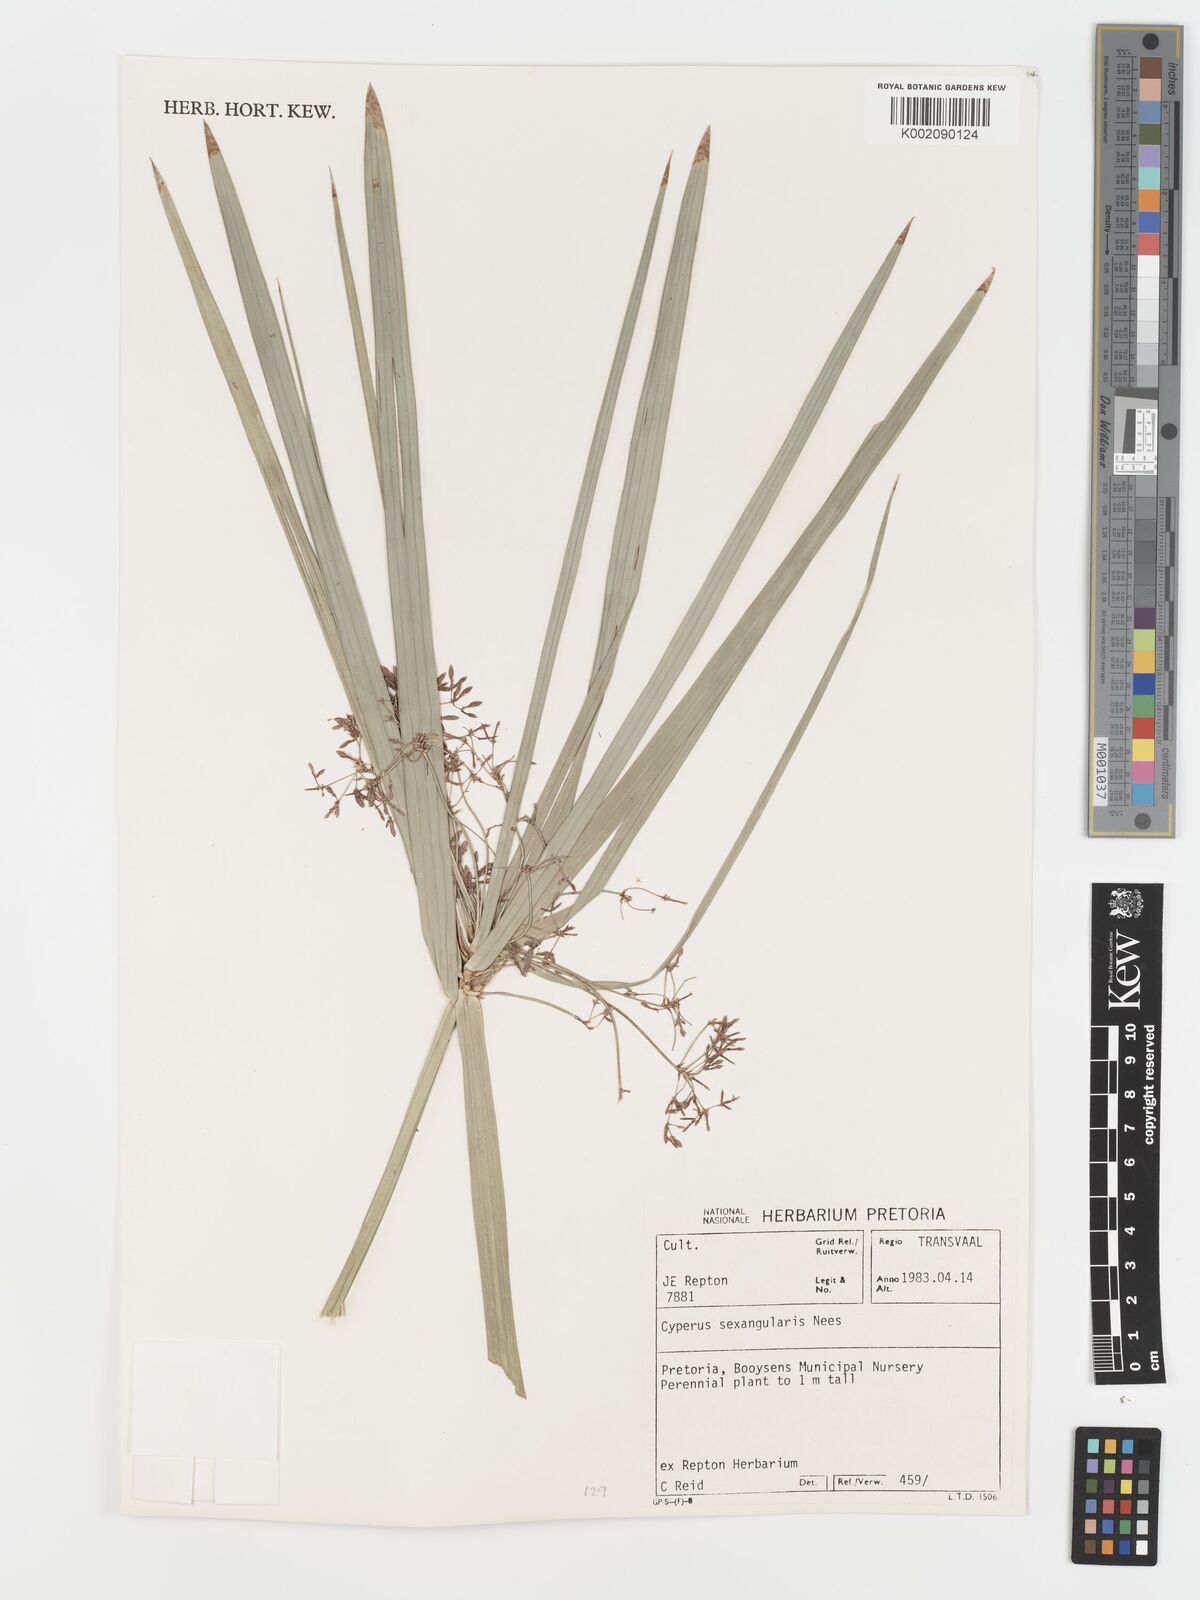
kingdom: Plantae
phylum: Tracheophyta
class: Liliopsida
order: Poales
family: Cyperaceae
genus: Cyperus
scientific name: Cyperus sexangularis
